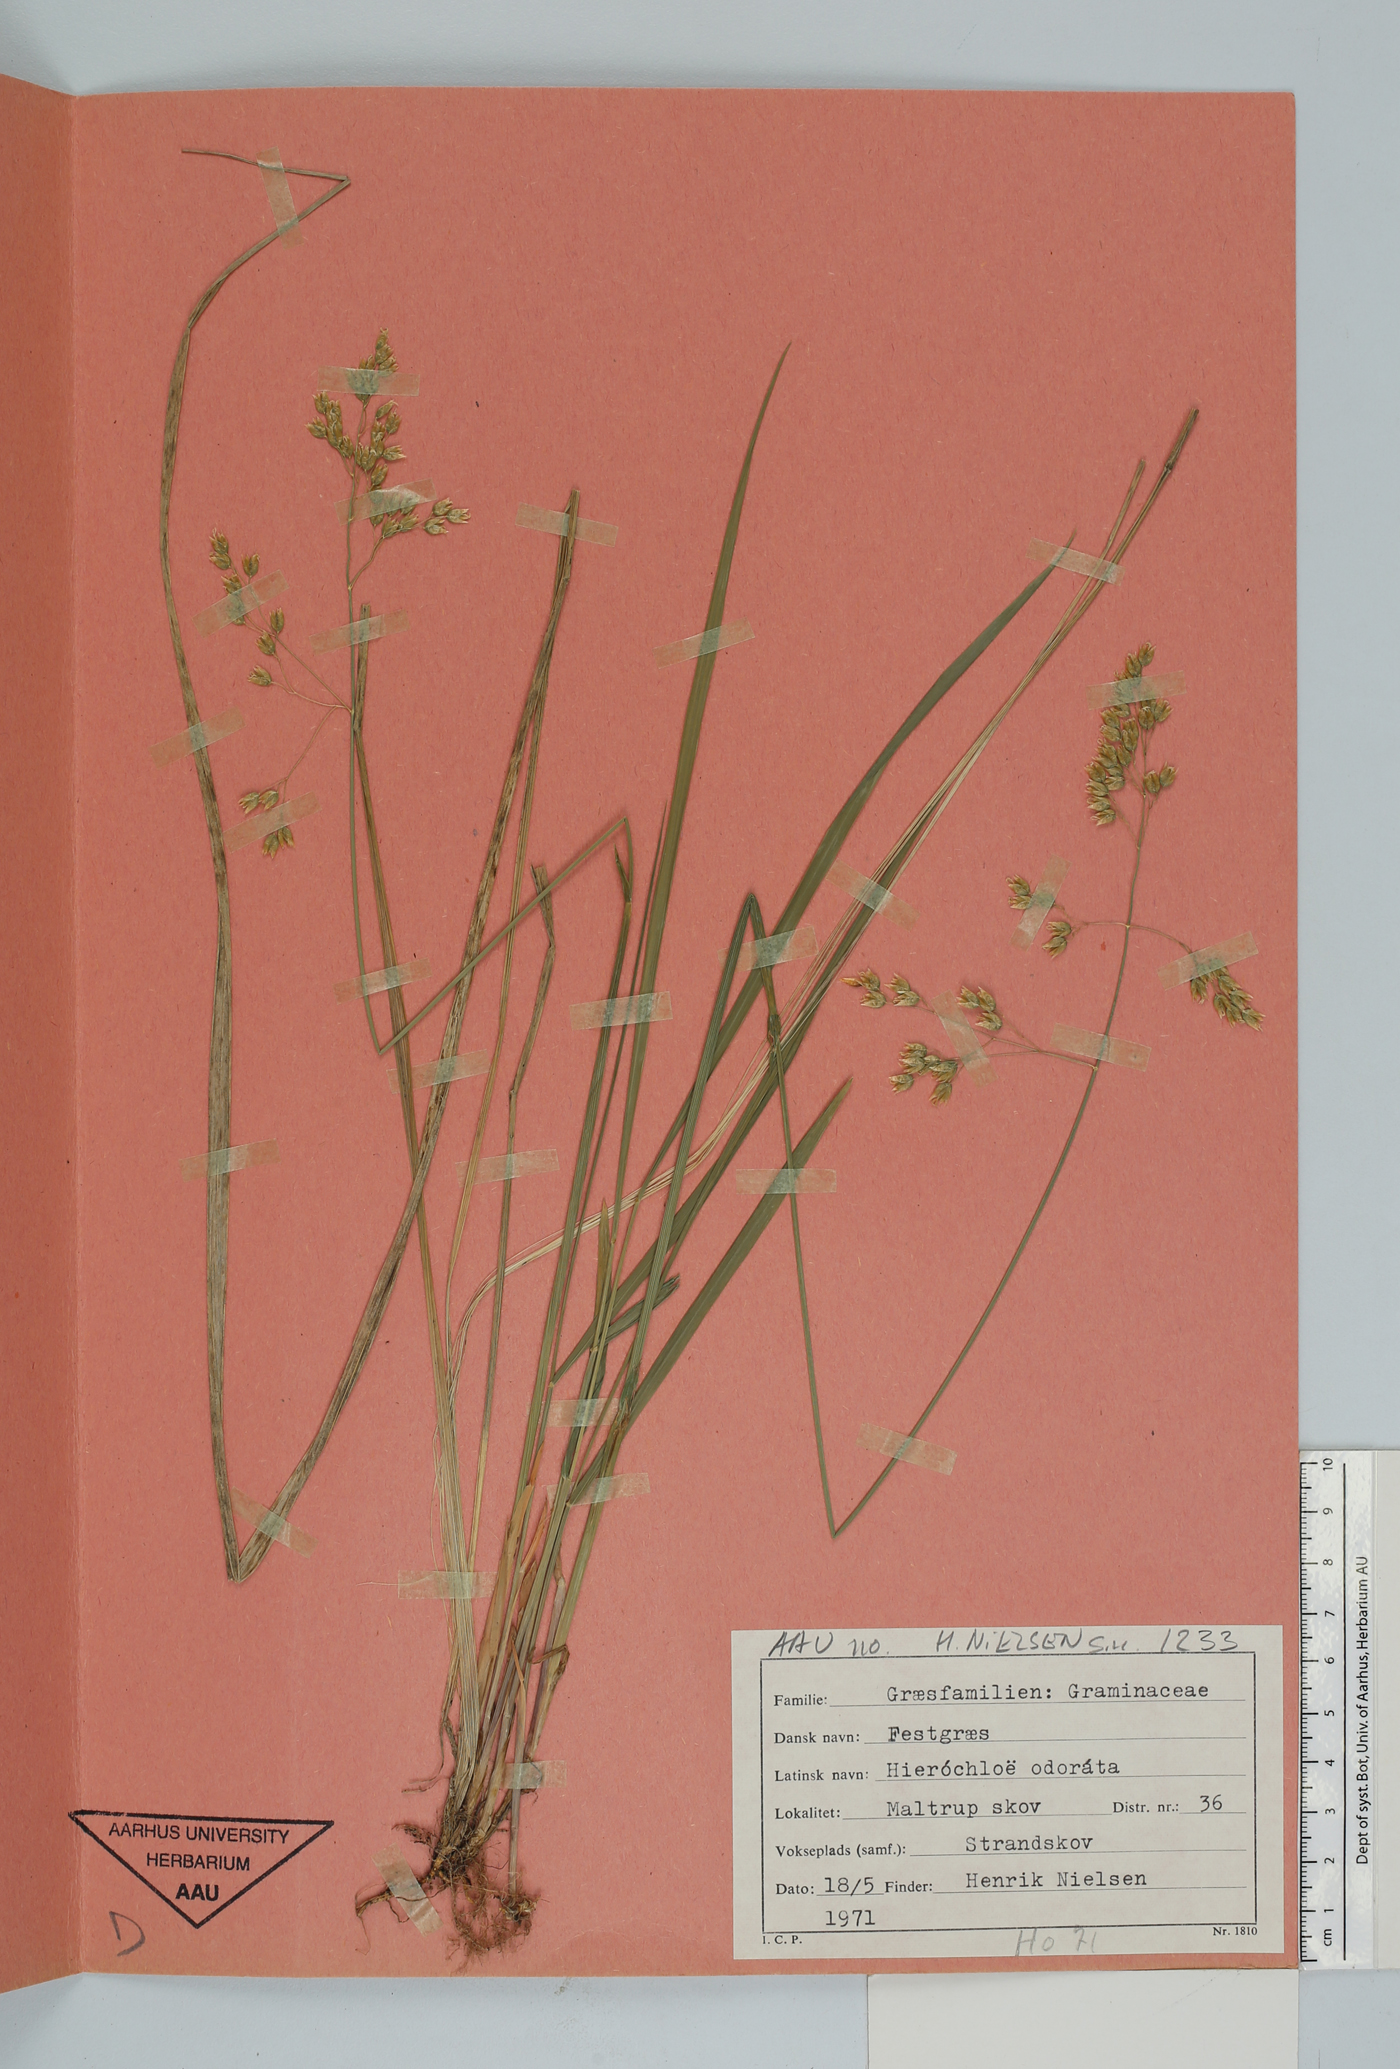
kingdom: Plantae
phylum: Tracheophyta
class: Liliopsida
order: Poales
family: Poaceae
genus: Anthoxanthum
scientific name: Anthoxanthum nitens
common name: Holy grass
